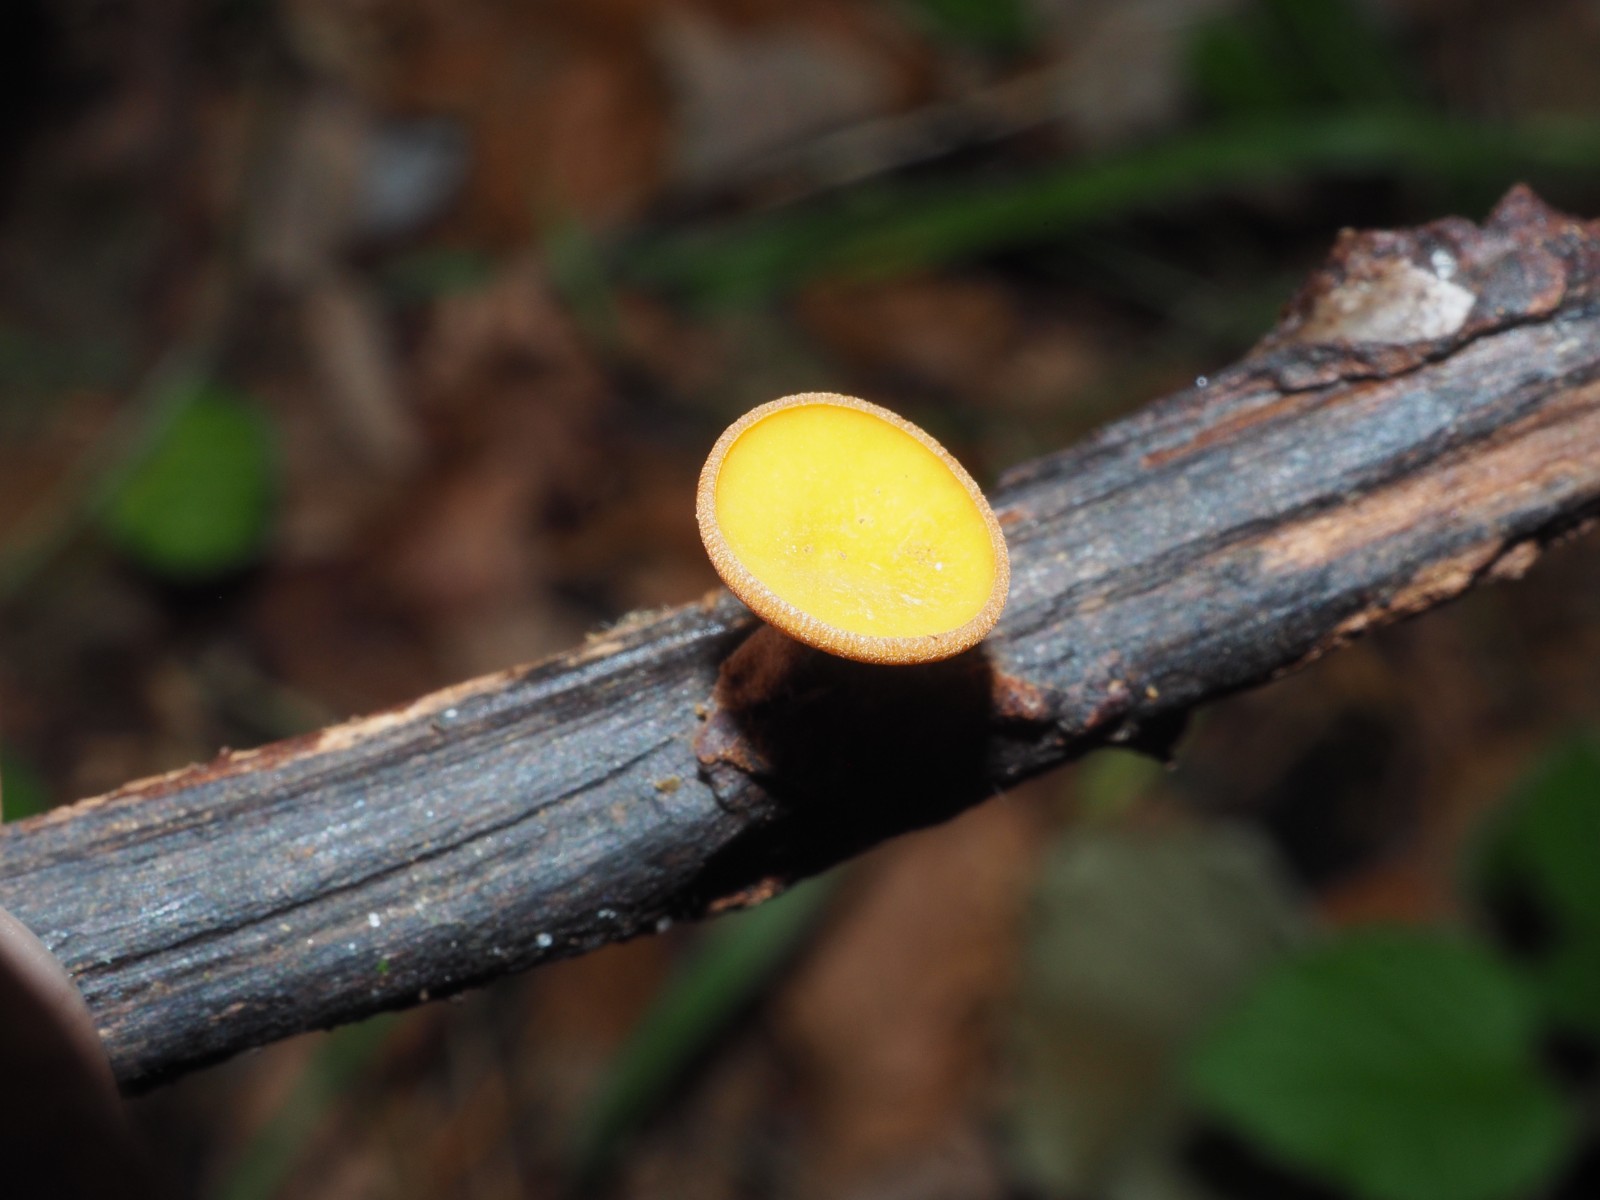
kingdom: Fungi
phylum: Ascomycota
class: Leotiomycetes
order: Helotiales
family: Rutstroemiaceae
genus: Rutstroemia
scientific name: Rutstroemia firma
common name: gren-brunskive
